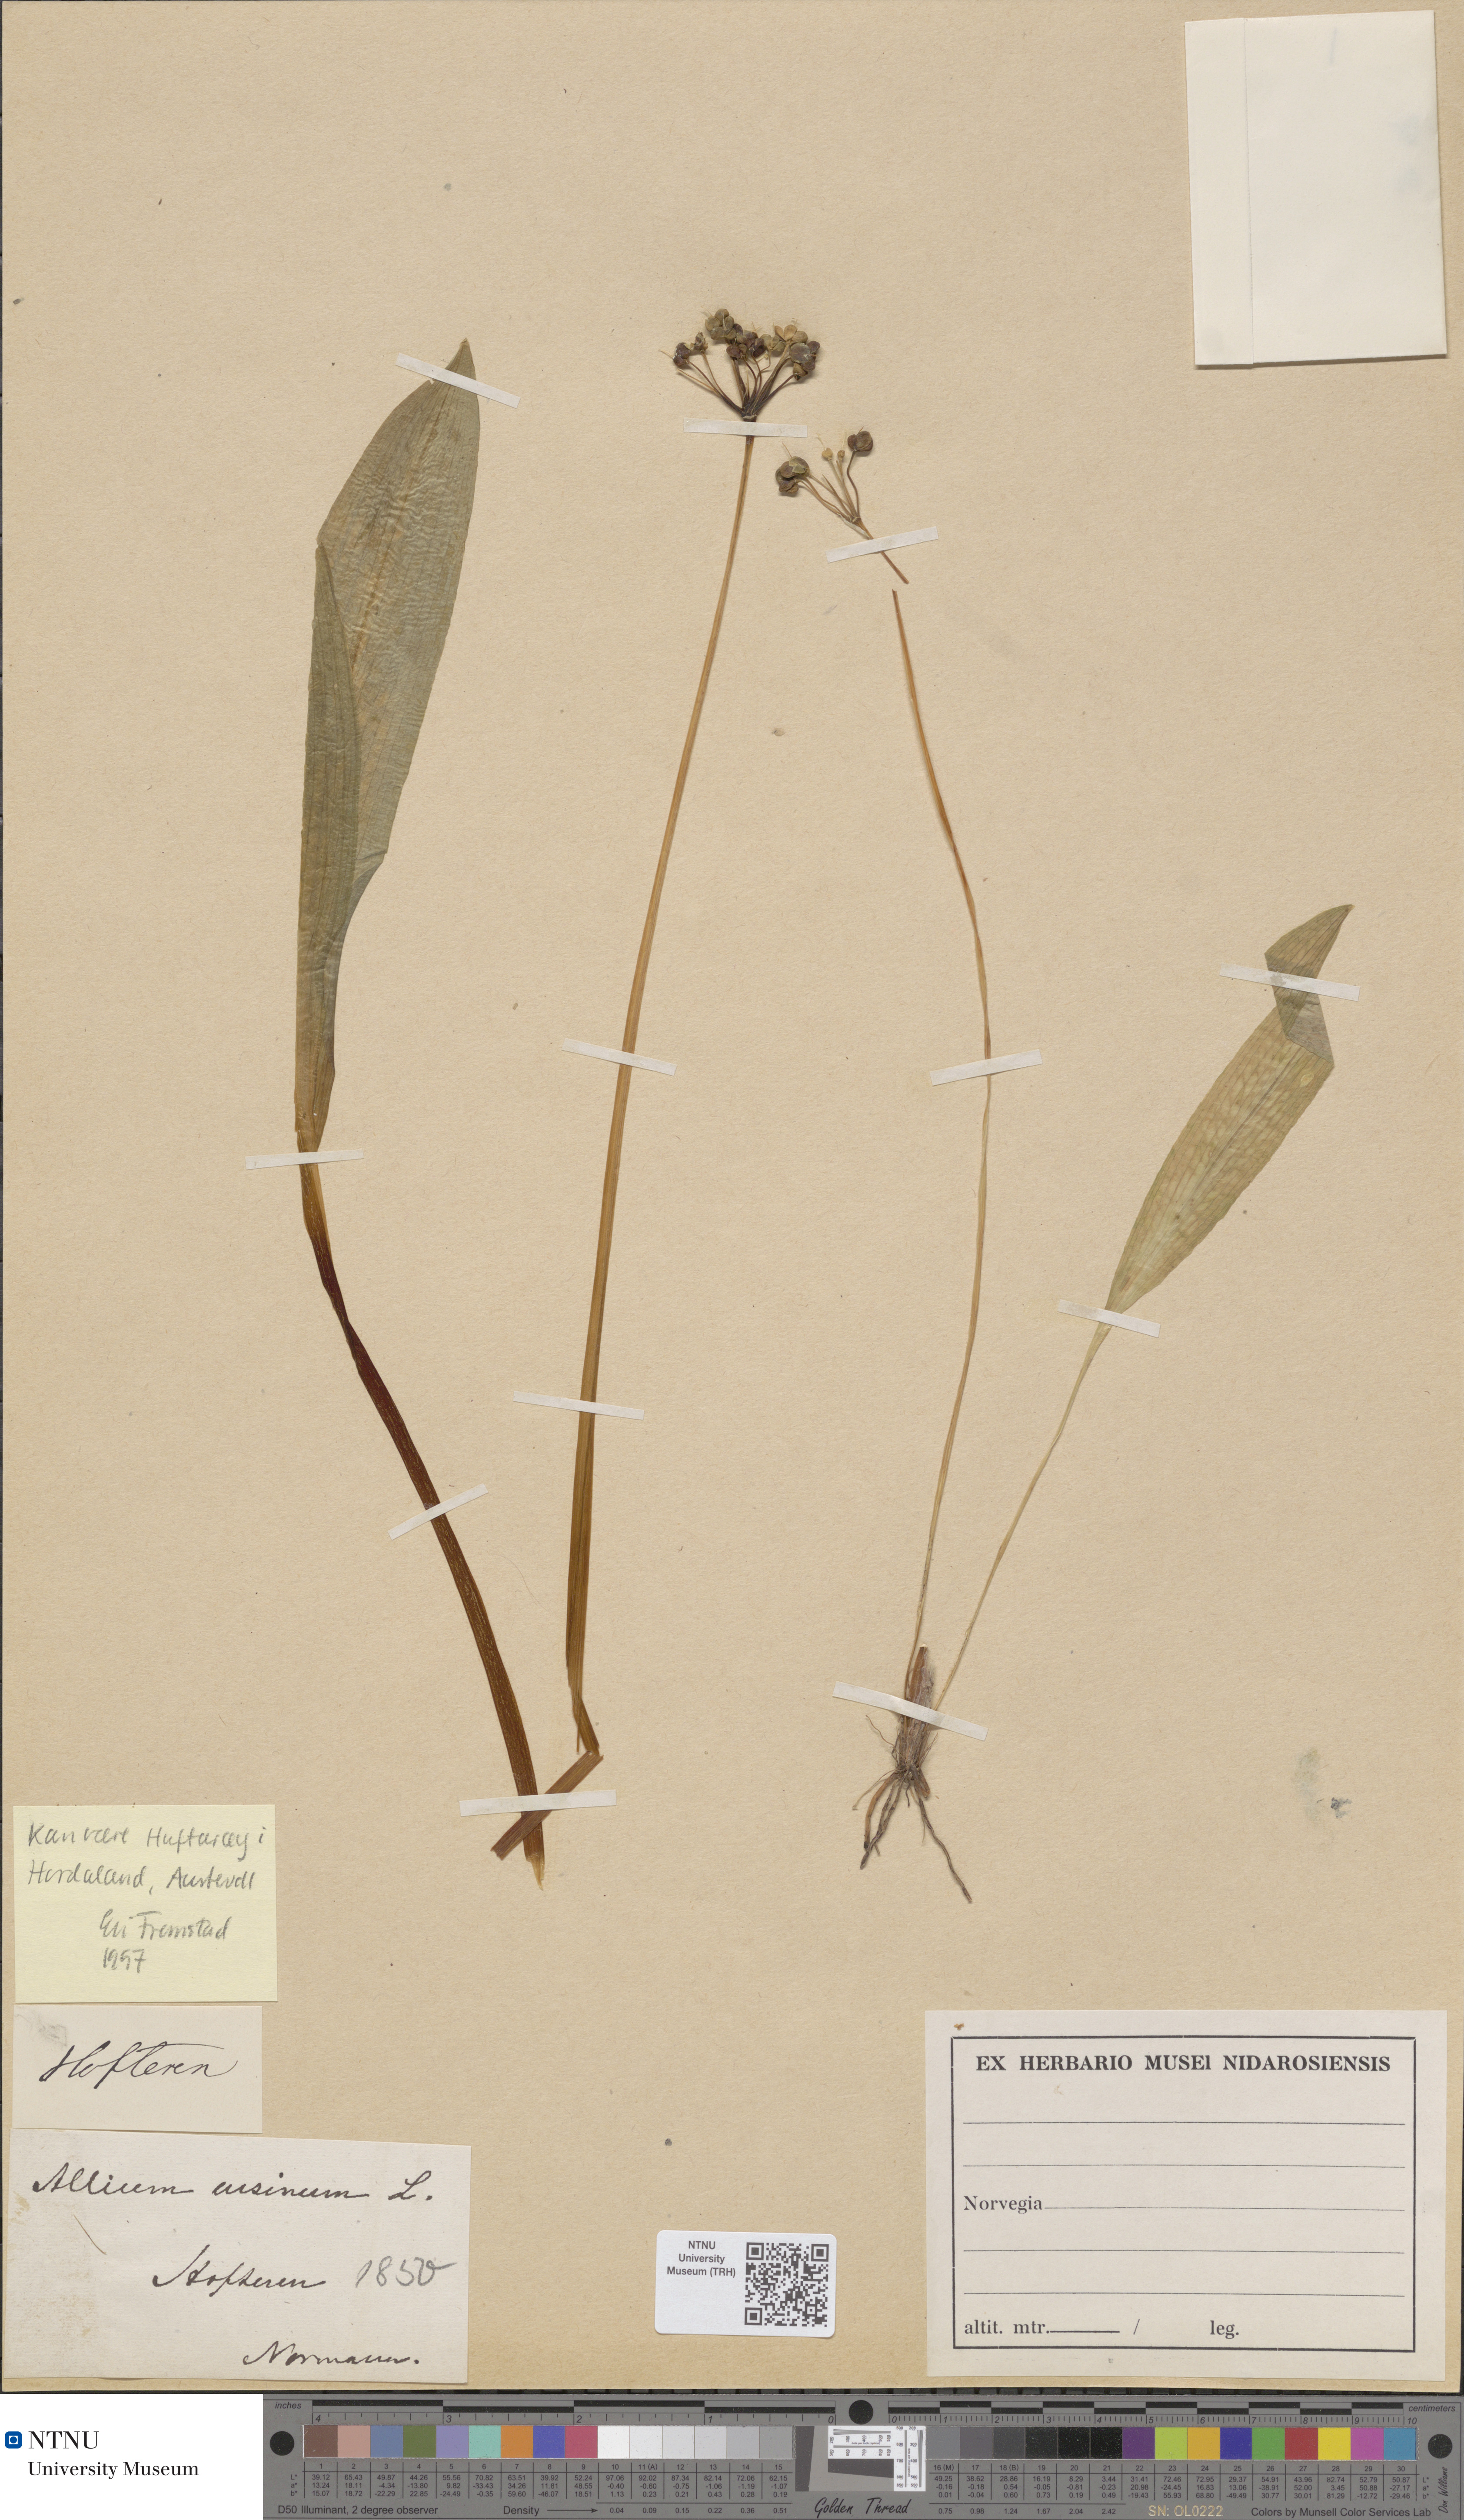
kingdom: Plantae
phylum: Tracheophyta
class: Liliopsida
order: Asparagales
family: Amaryllidaceae
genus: Allium
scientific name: Allium ursinum
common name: Ramsons
